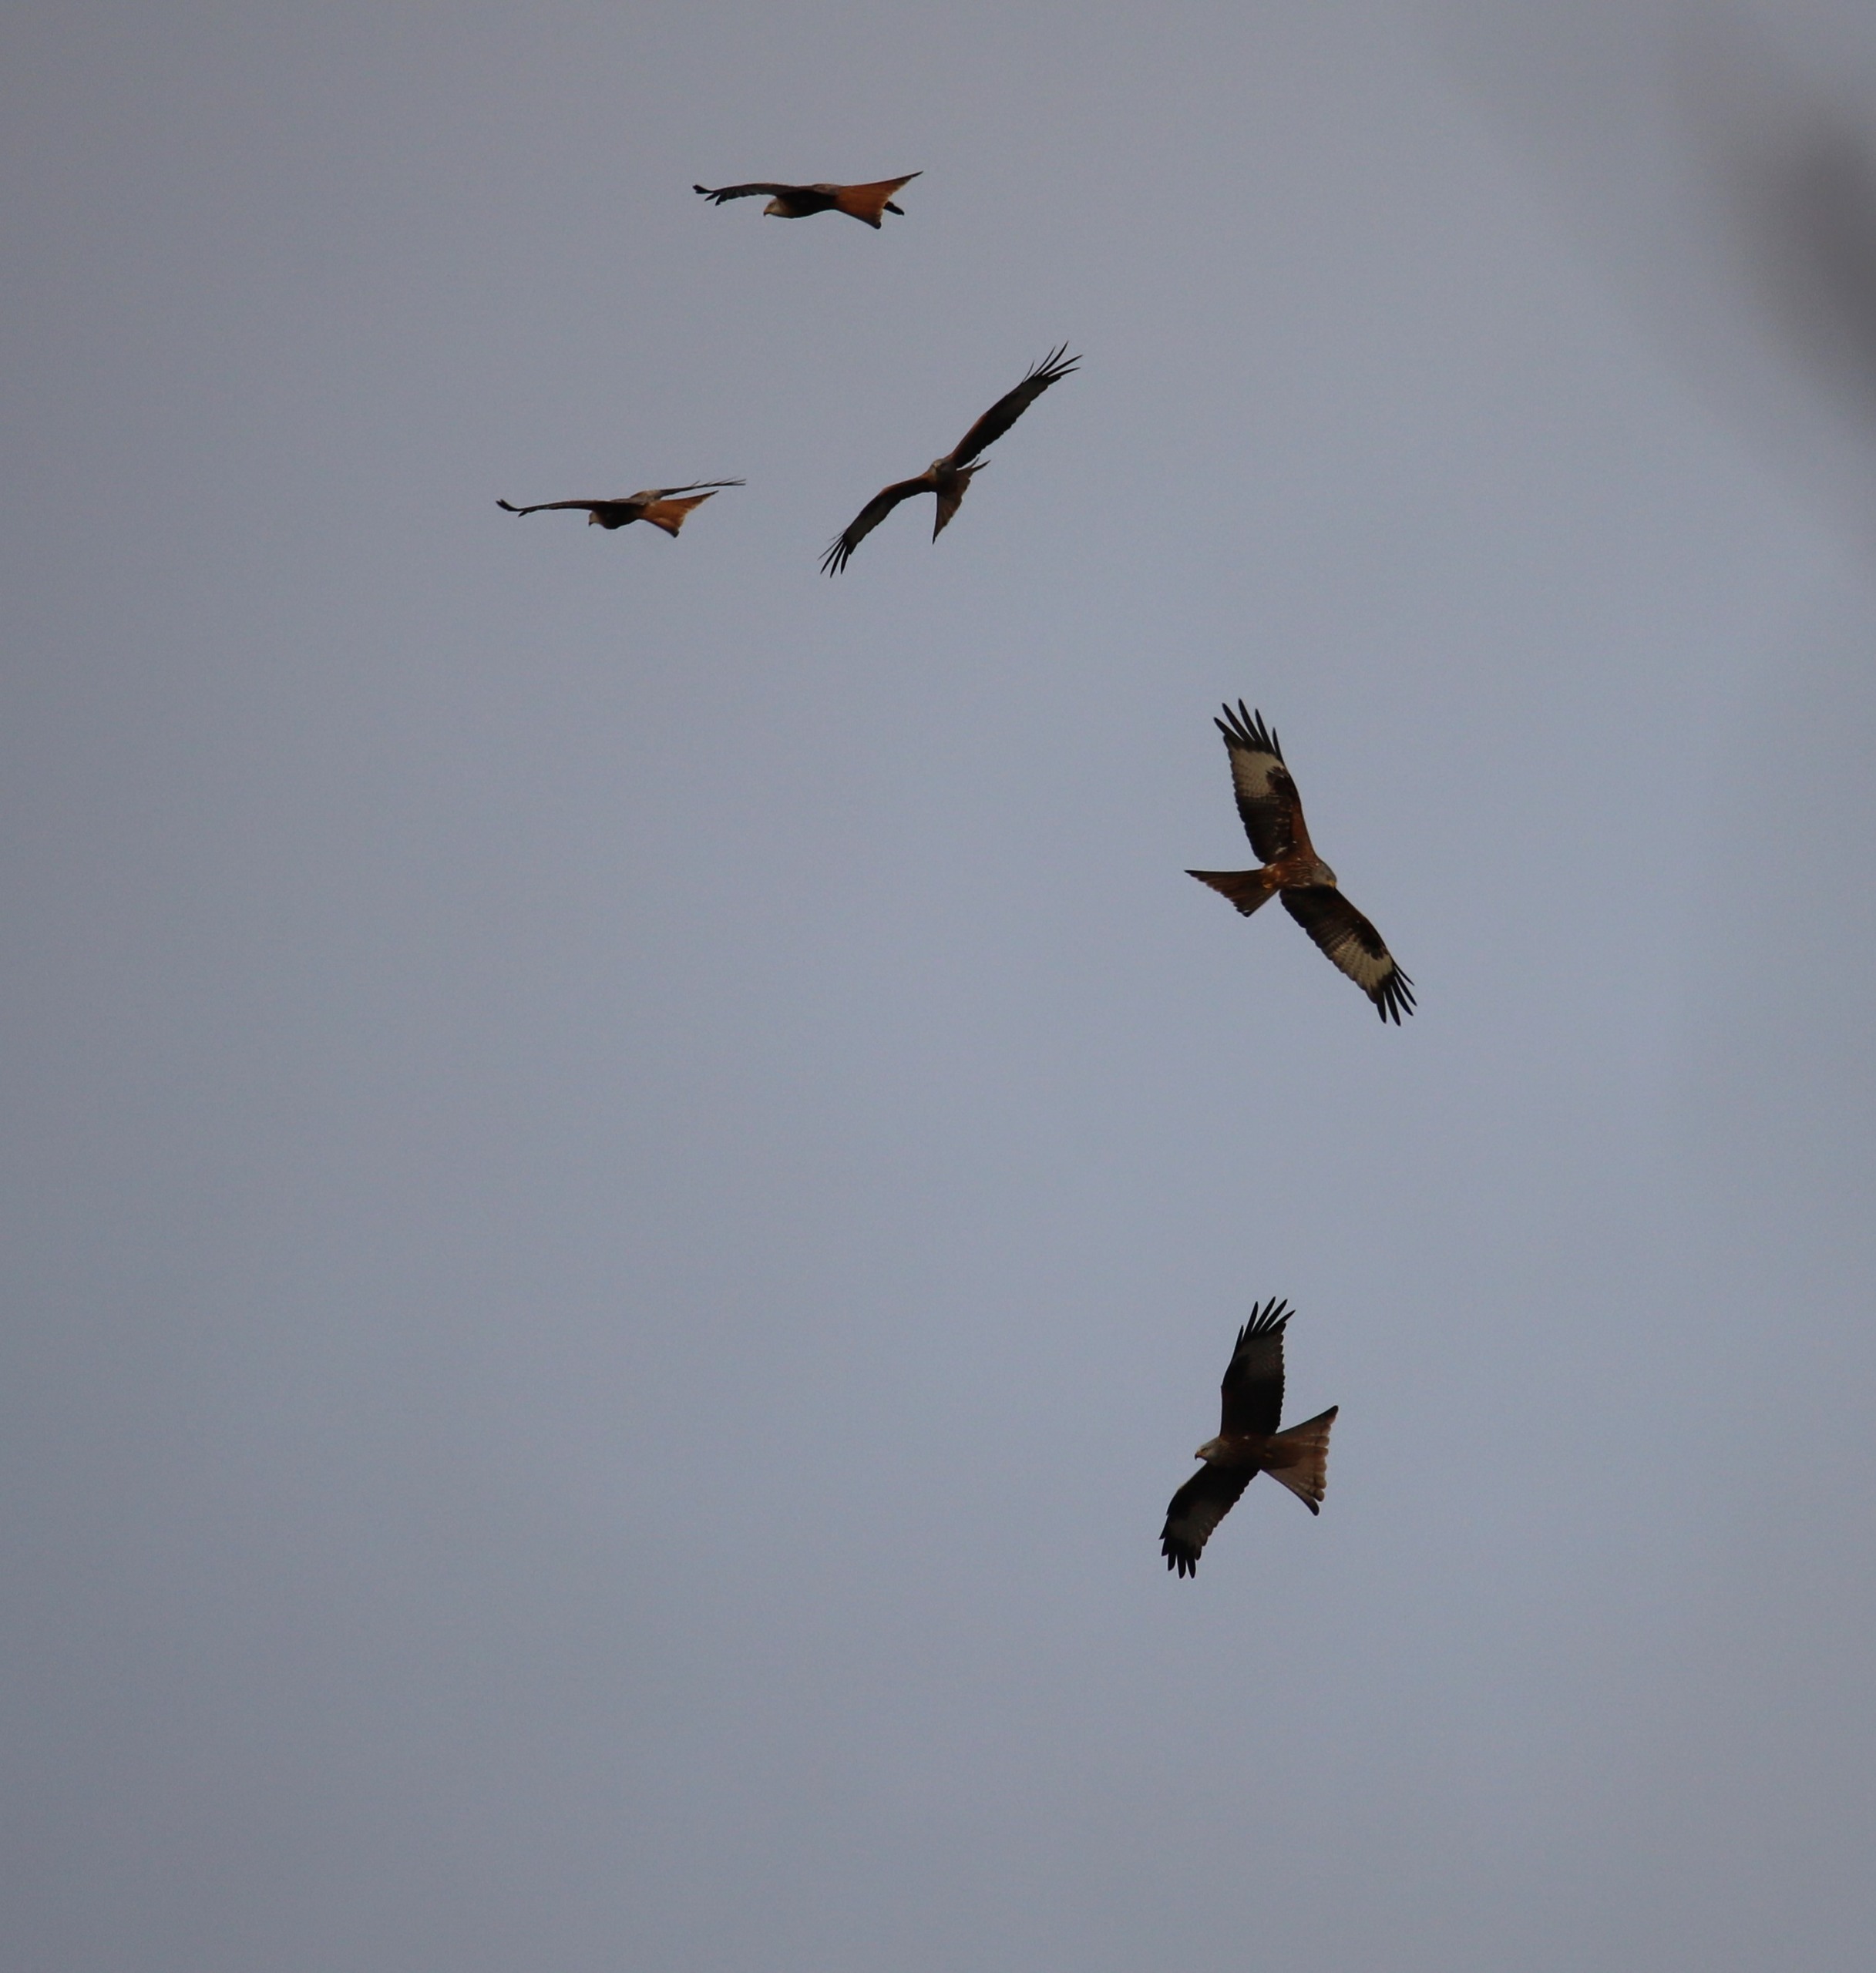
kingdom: Animalia
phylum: Chordata
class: Aves
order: Accipitriformes
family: Accipitridae
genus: Milvus
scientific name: Milvus milvus
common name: Rød glente
